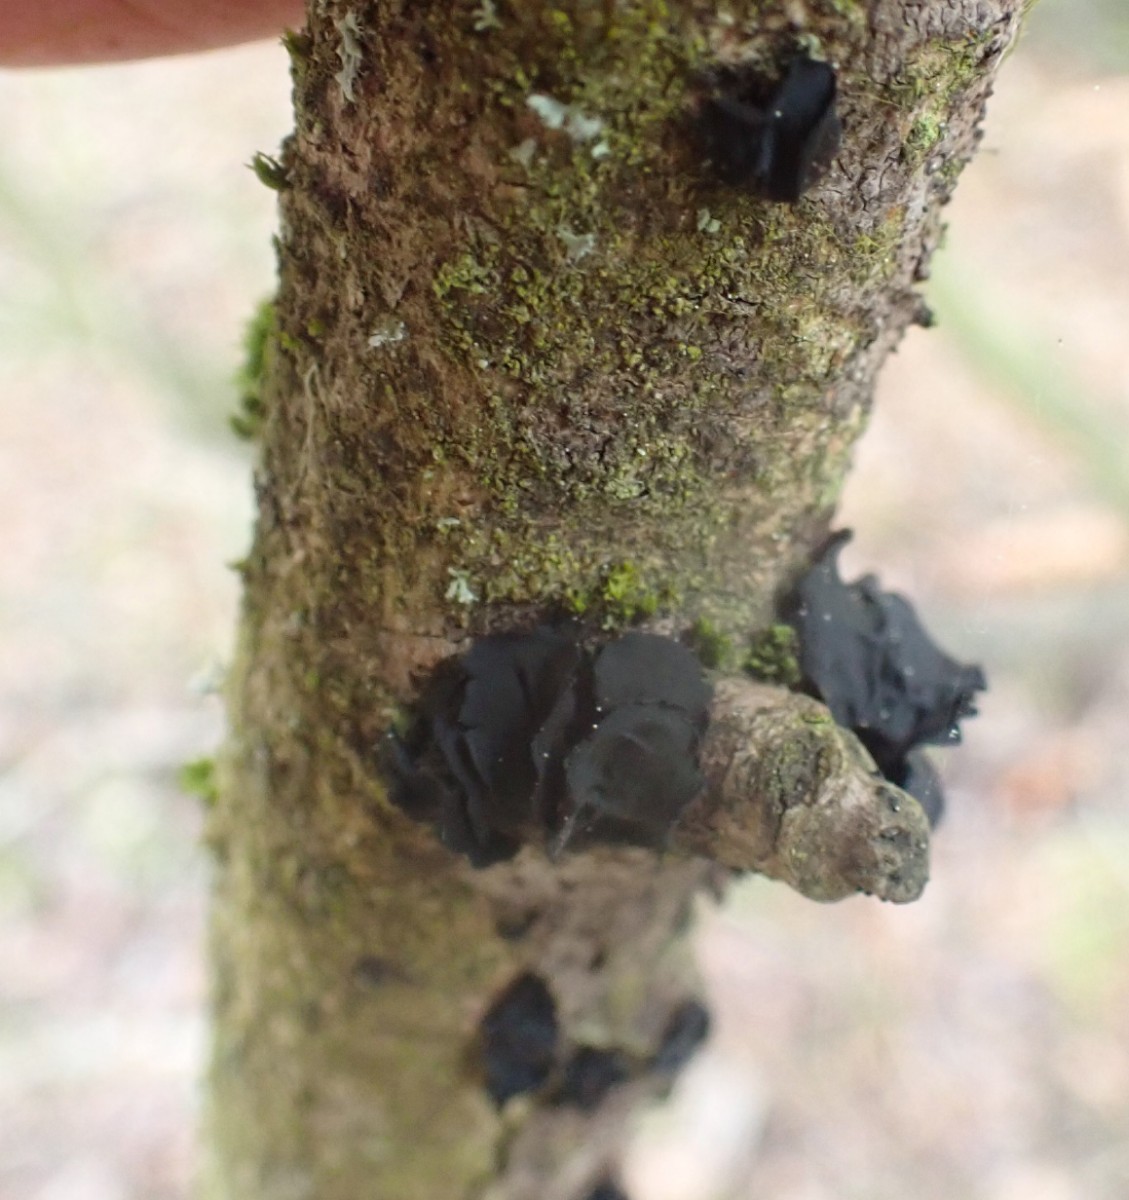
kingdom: Fungi
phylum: Ascomycota
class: Leotiomycetes
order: Helotiales
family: Cordieritidaceae
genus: Ionomidotis
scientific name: Ionomidotis fulvotingens
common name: rødmende tjæreskive
